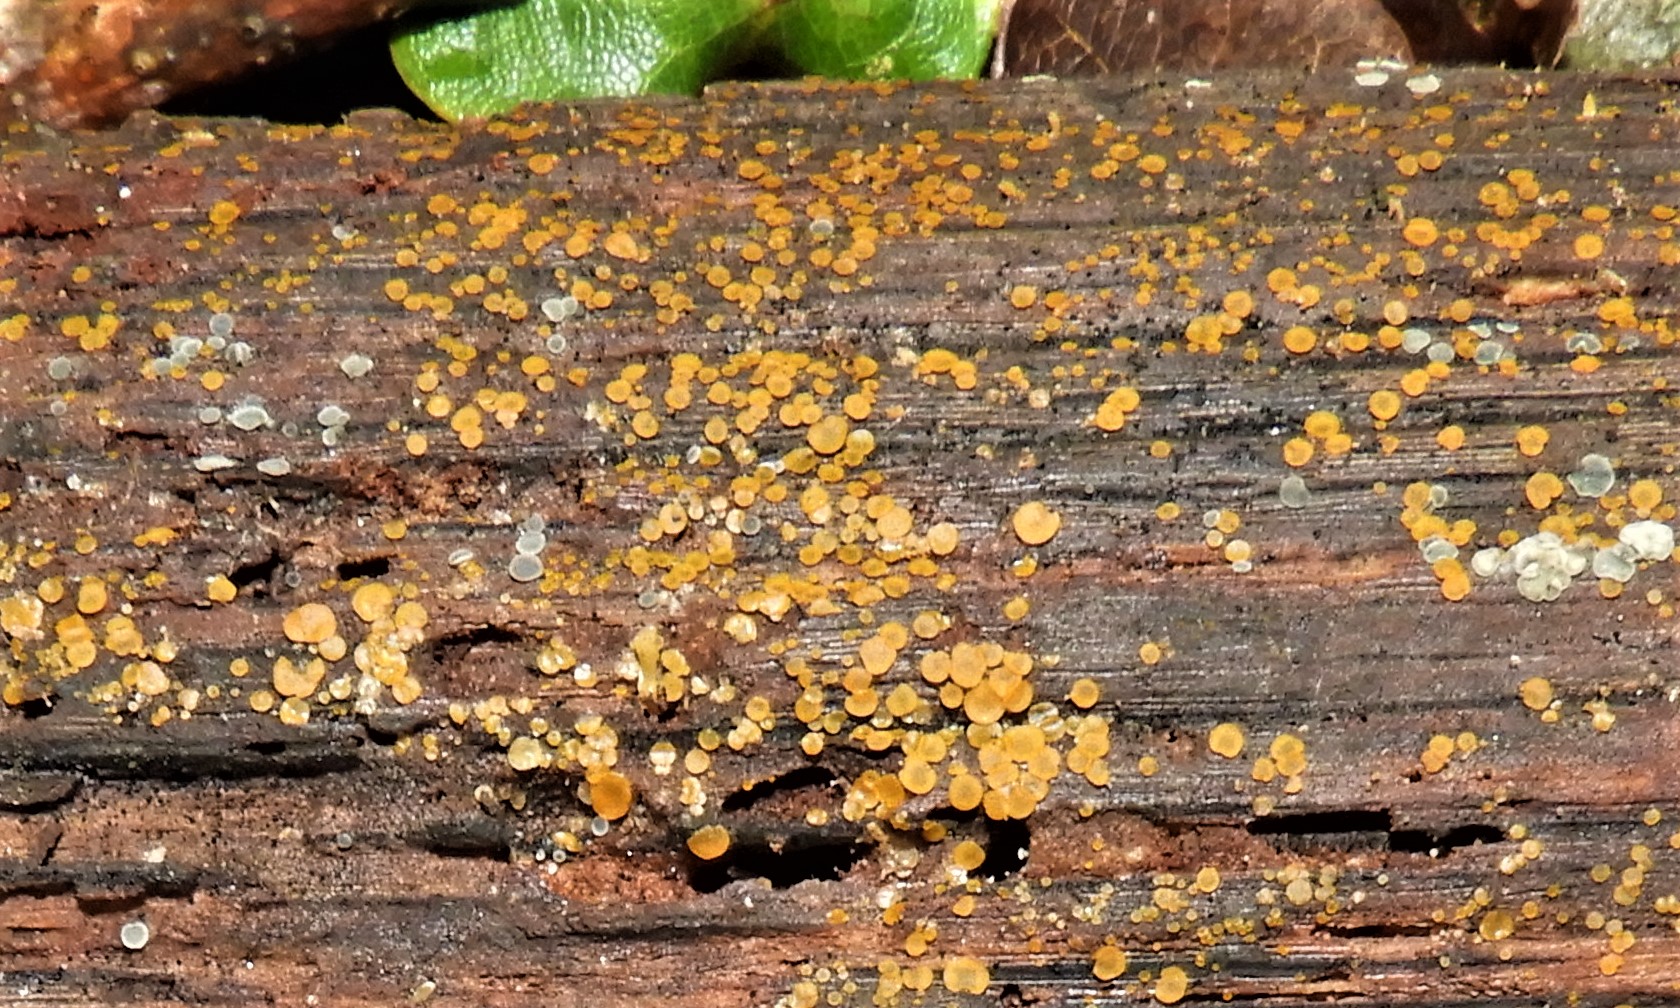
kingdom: Fungi
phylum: Ascomycota
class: Orbiliomycetes
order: Orbiliales
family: Orbiliaceae
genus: Orbilia
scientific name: Orbilia xanthostigma
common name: krumsporet voksskive
